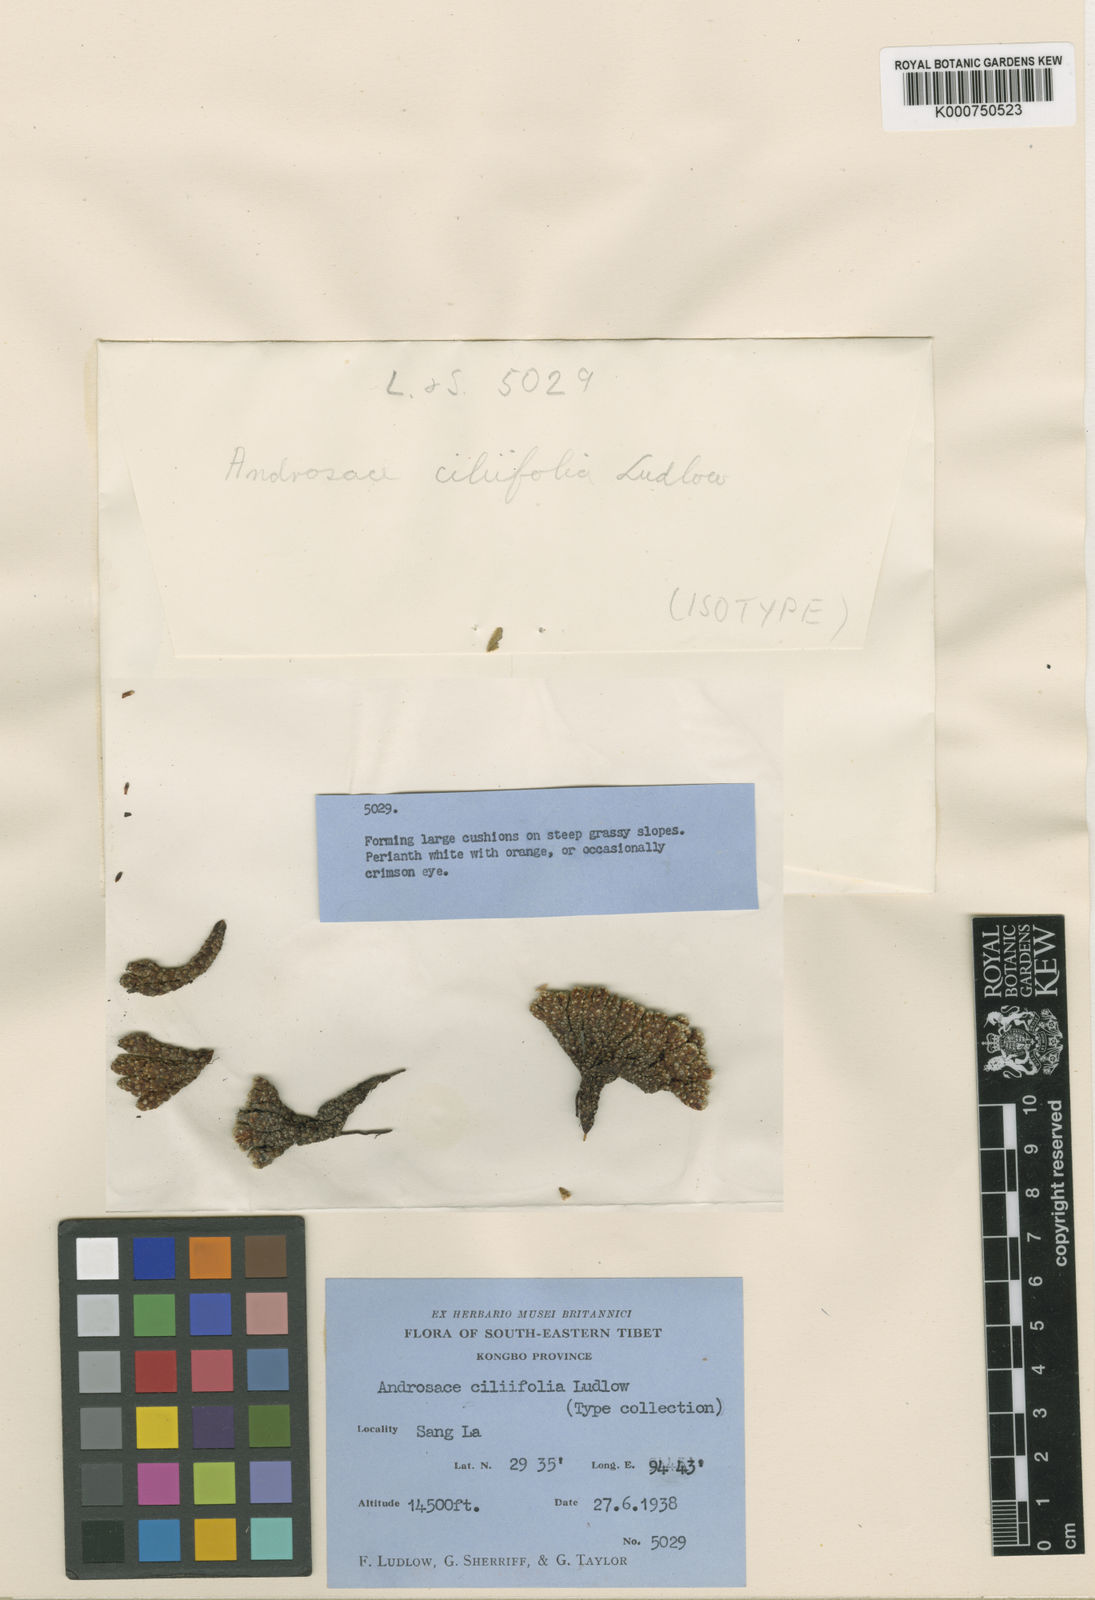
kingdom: Plantae
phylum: Tracheophyta
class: Magnoliopsida
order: Ericales
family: Primulaceae
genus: Androsace
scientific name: Androsace ciliifolia
